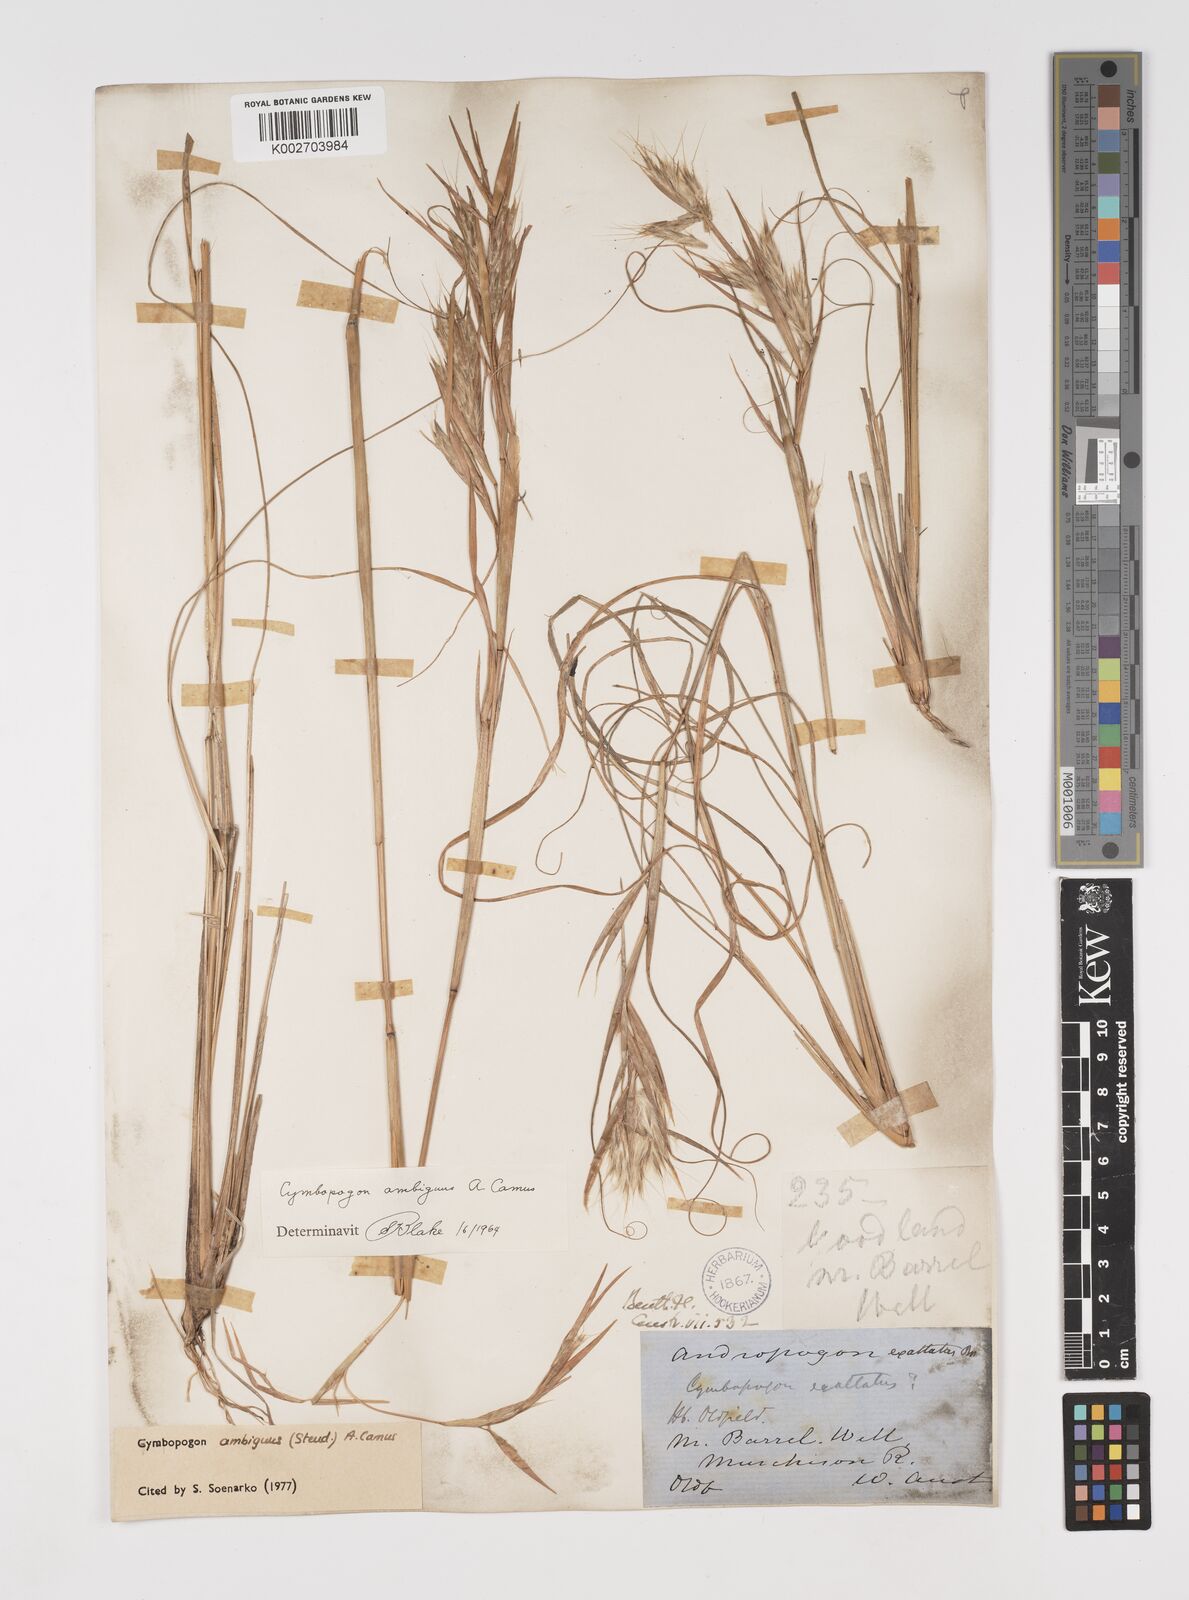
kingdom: Plantae
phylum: Tracheophyta
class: Liliopsida
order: Poales
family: Poaceae
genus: Cymbopogon
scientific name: Cymbopogon ambiguus
